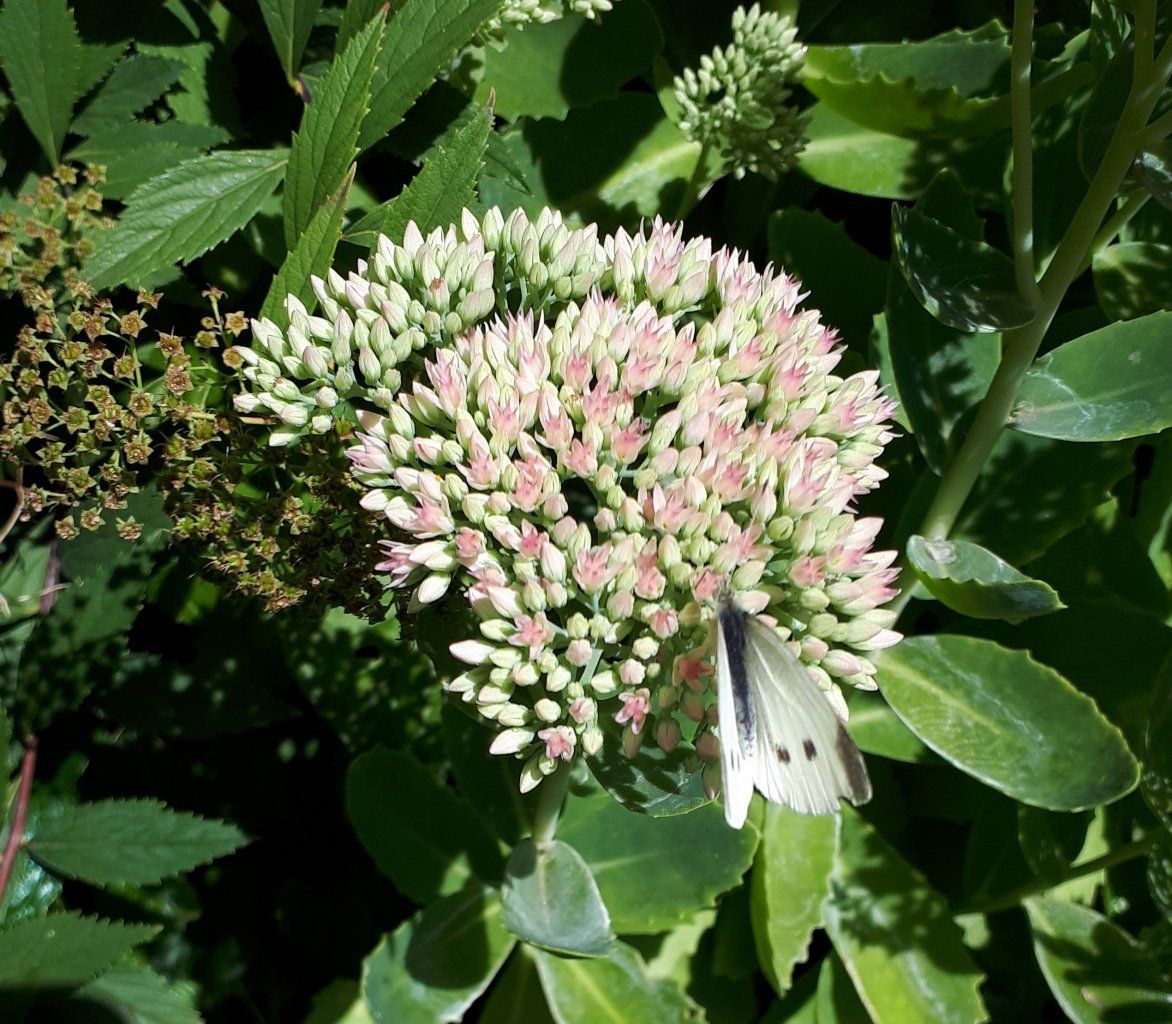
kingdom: Animalia
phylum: Arthropoda
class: Insecta
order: Lepidoptera
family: Pieridae
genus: Pieris
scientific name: Pieris rapae
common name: Cabbage White
